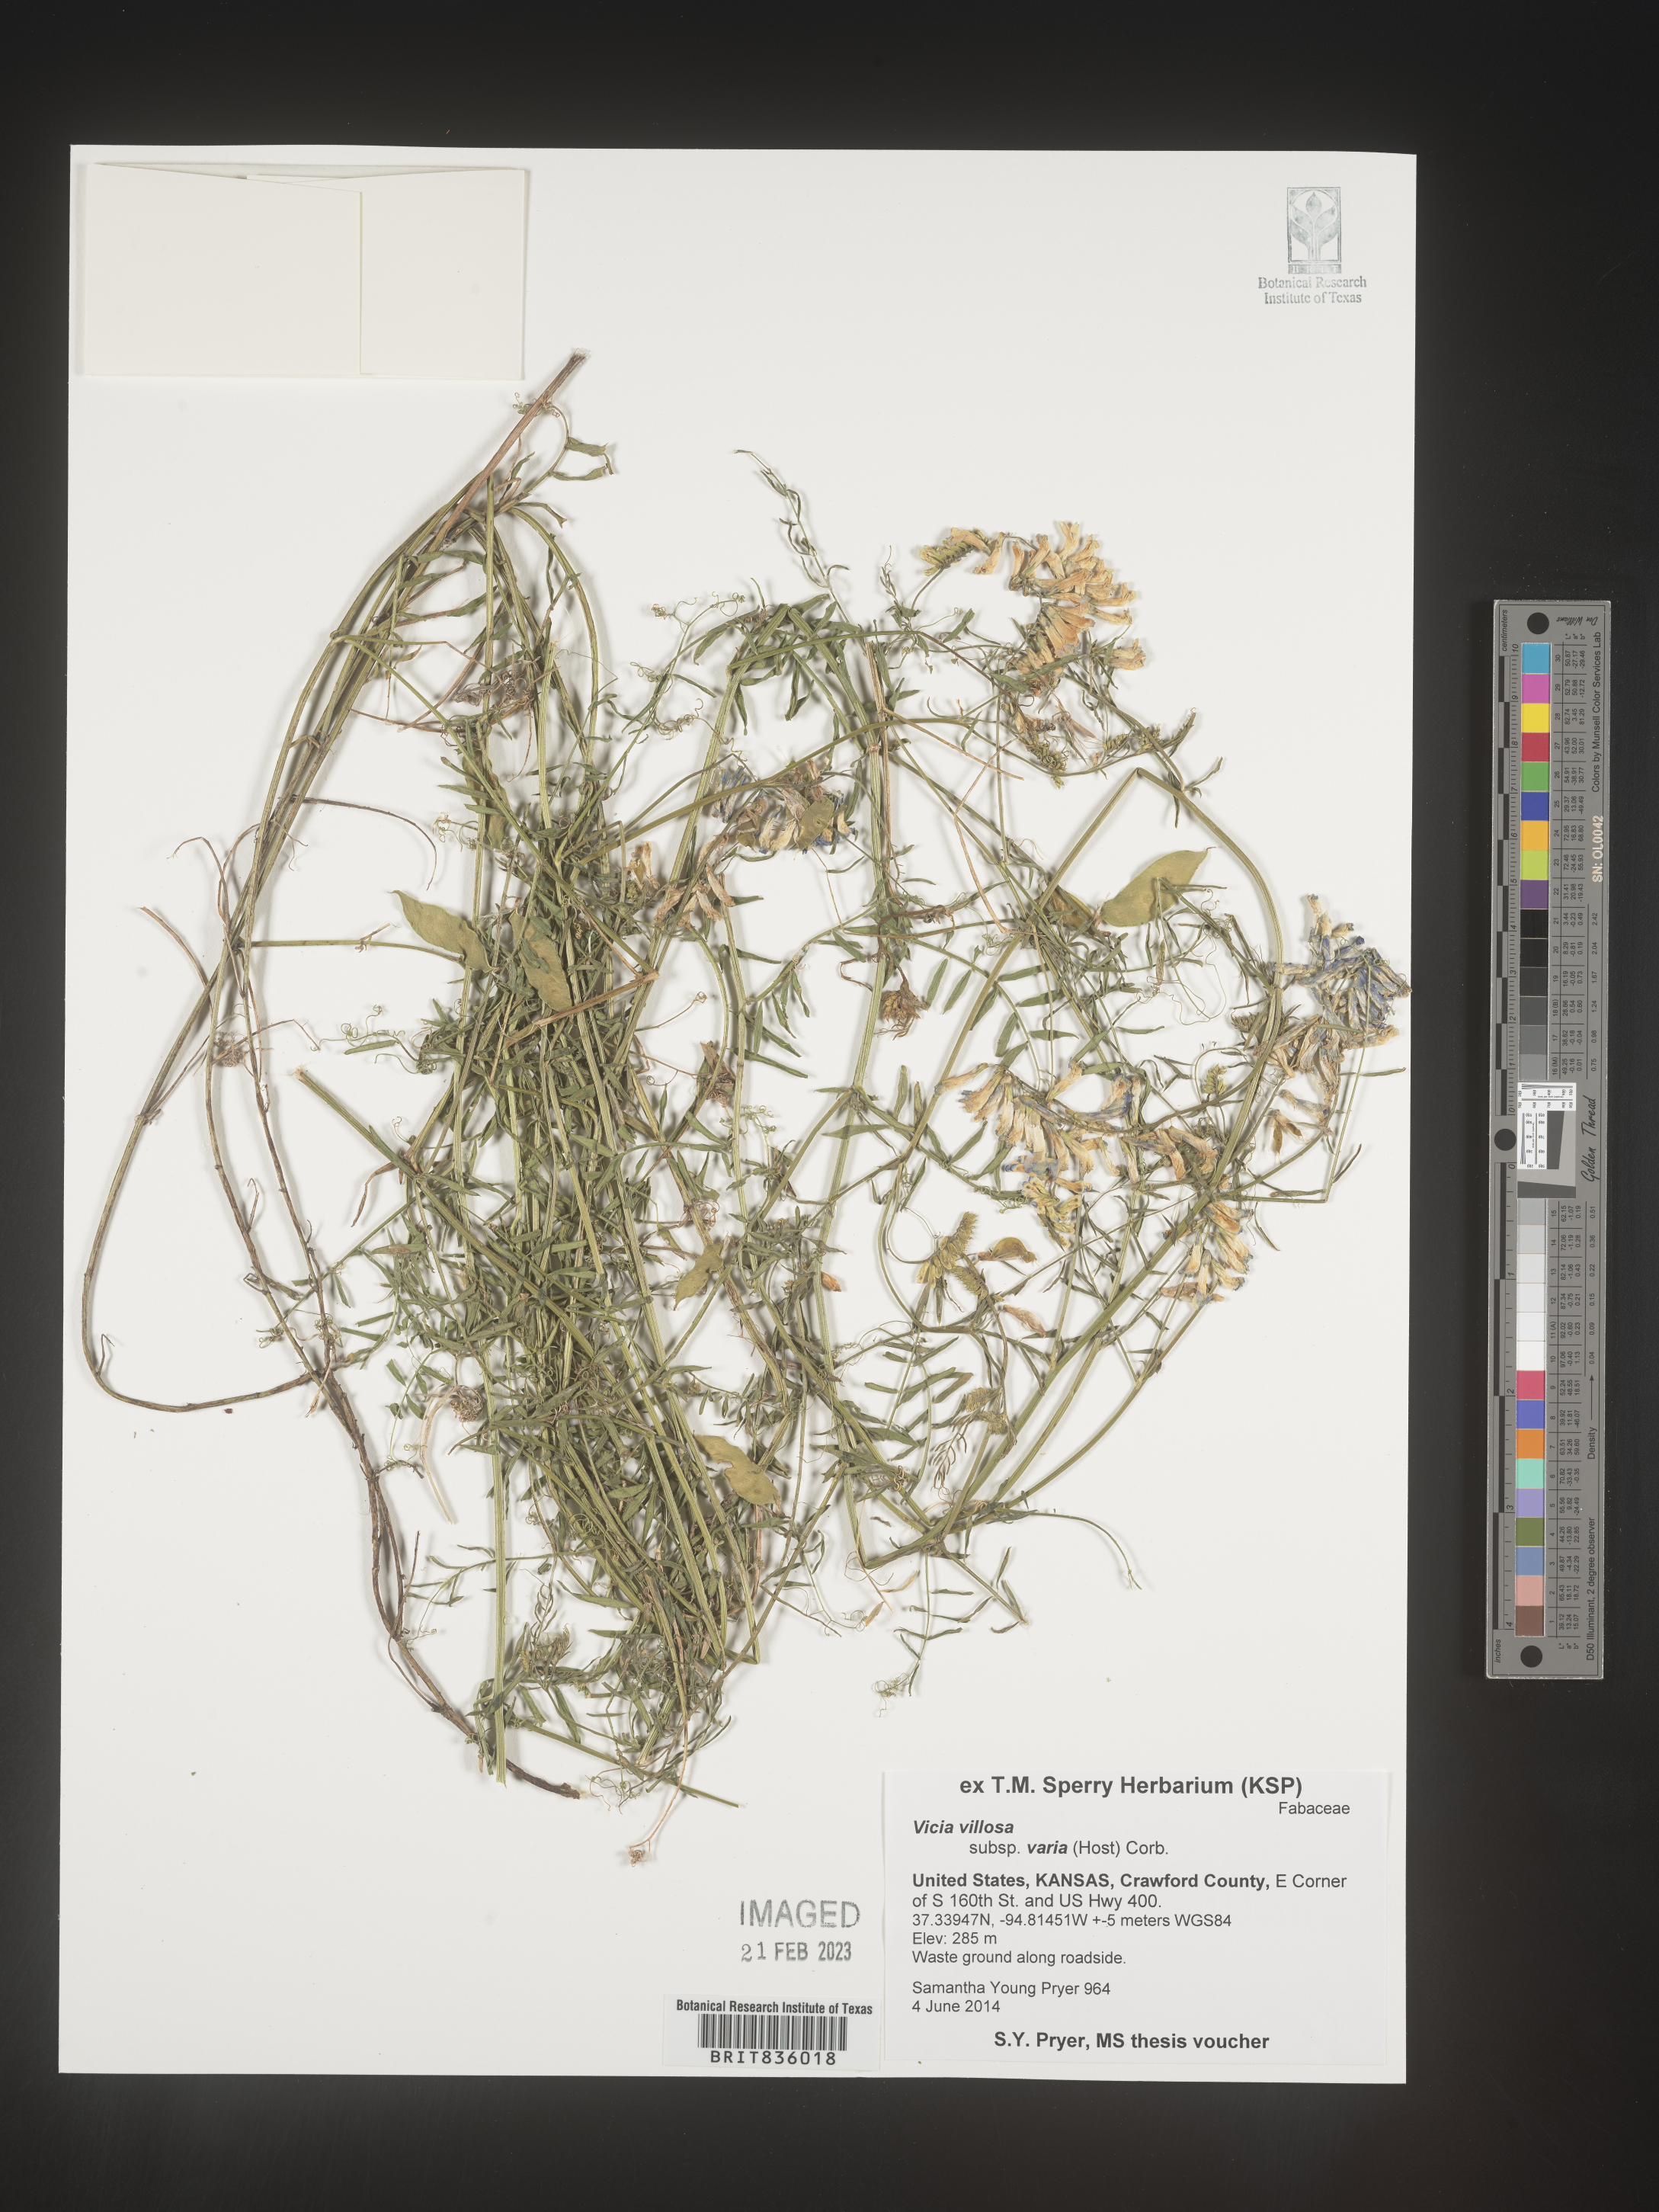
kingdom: Plantae
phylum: Tracheophyta
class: Magnoliopsida
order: Fabales
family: Fabaceae
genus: Vicia
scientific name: Vicia villosa
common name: Fodder vetch
